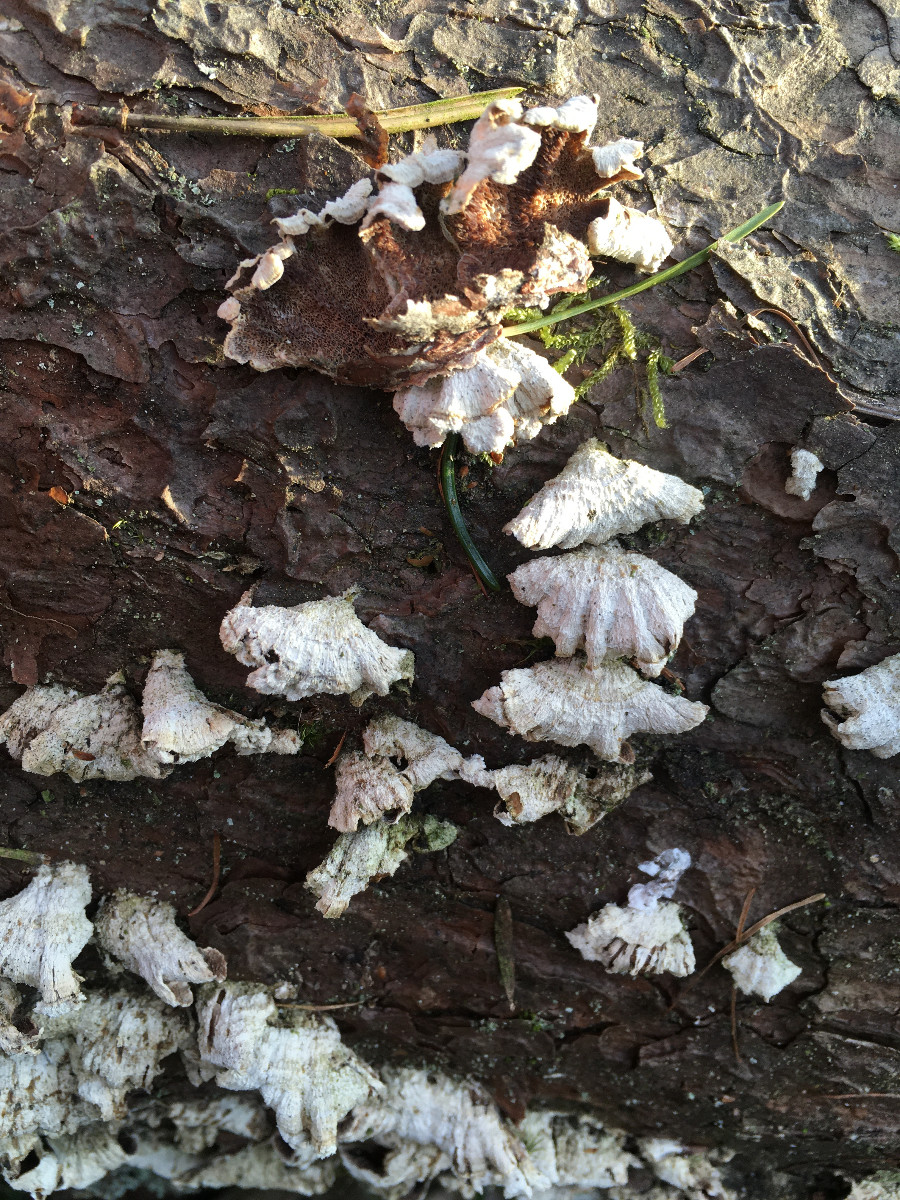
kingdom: Fungi
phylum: Basidiomycota
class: Agaricomycetes
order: Hymenochaetales
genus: Trichaptum
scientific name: Trichaptum fuscoviolaceum
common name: tandet violporesvamp
